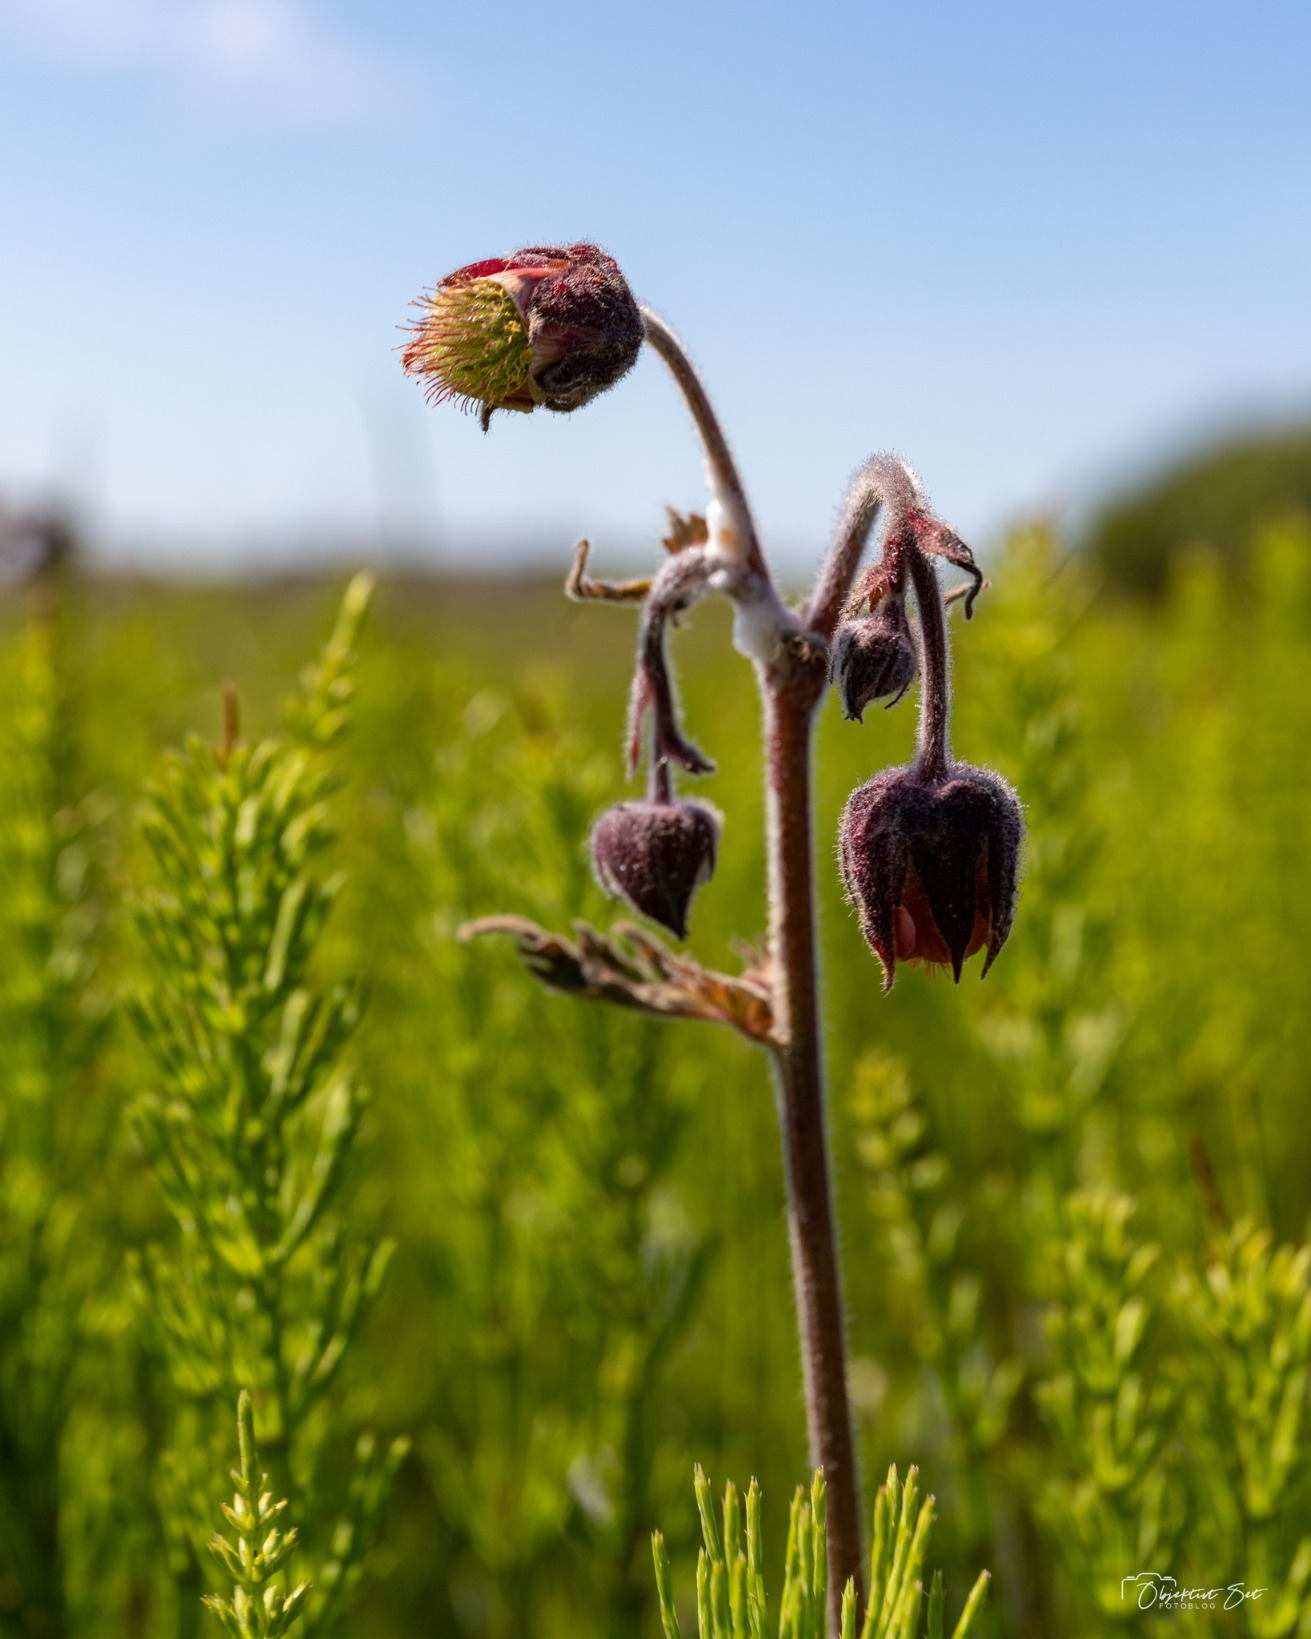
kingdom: Plantae
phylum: Tracheophyta
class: Magnoliopsida
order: Rosales
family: Rosaceae
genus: Geum
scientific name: Geum rivale
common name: Eng-nellikerod
